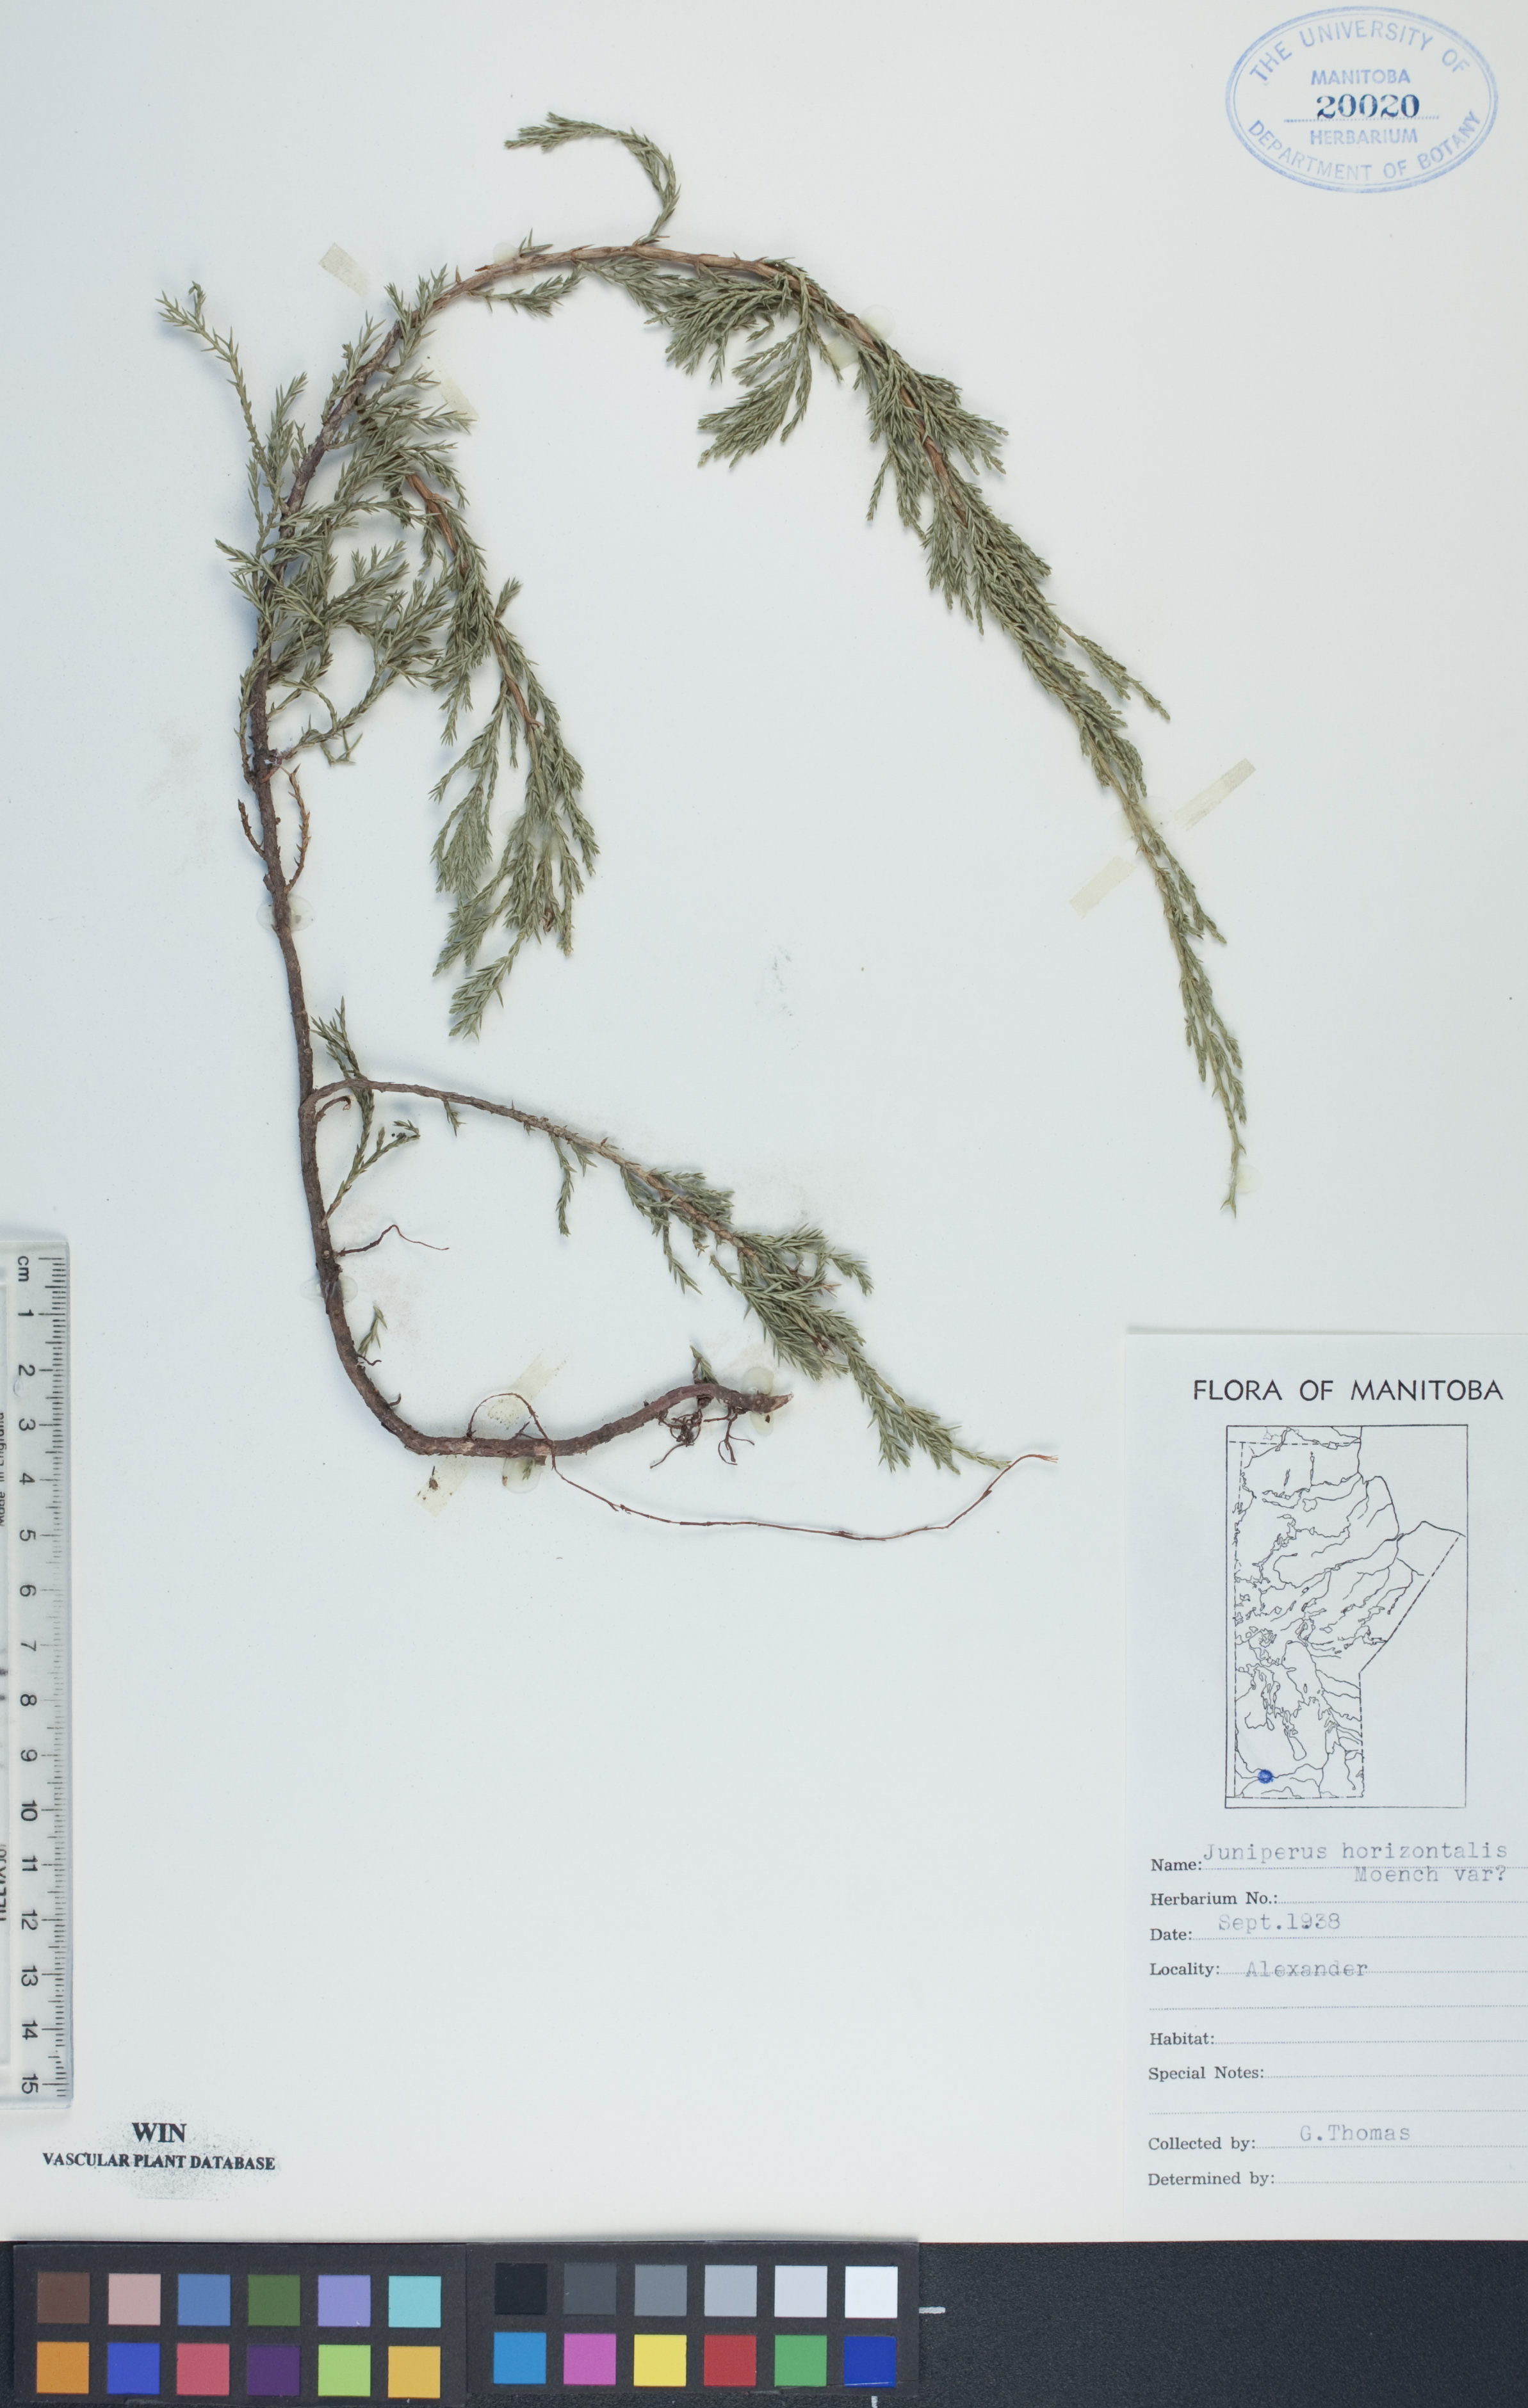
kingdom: Plantae
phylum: Tracheophyta
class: Pinopsida
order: Pinales
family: Cupressaceae
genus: Juniperus
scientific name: Juniperus horizontalis
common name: Creeping juniper
